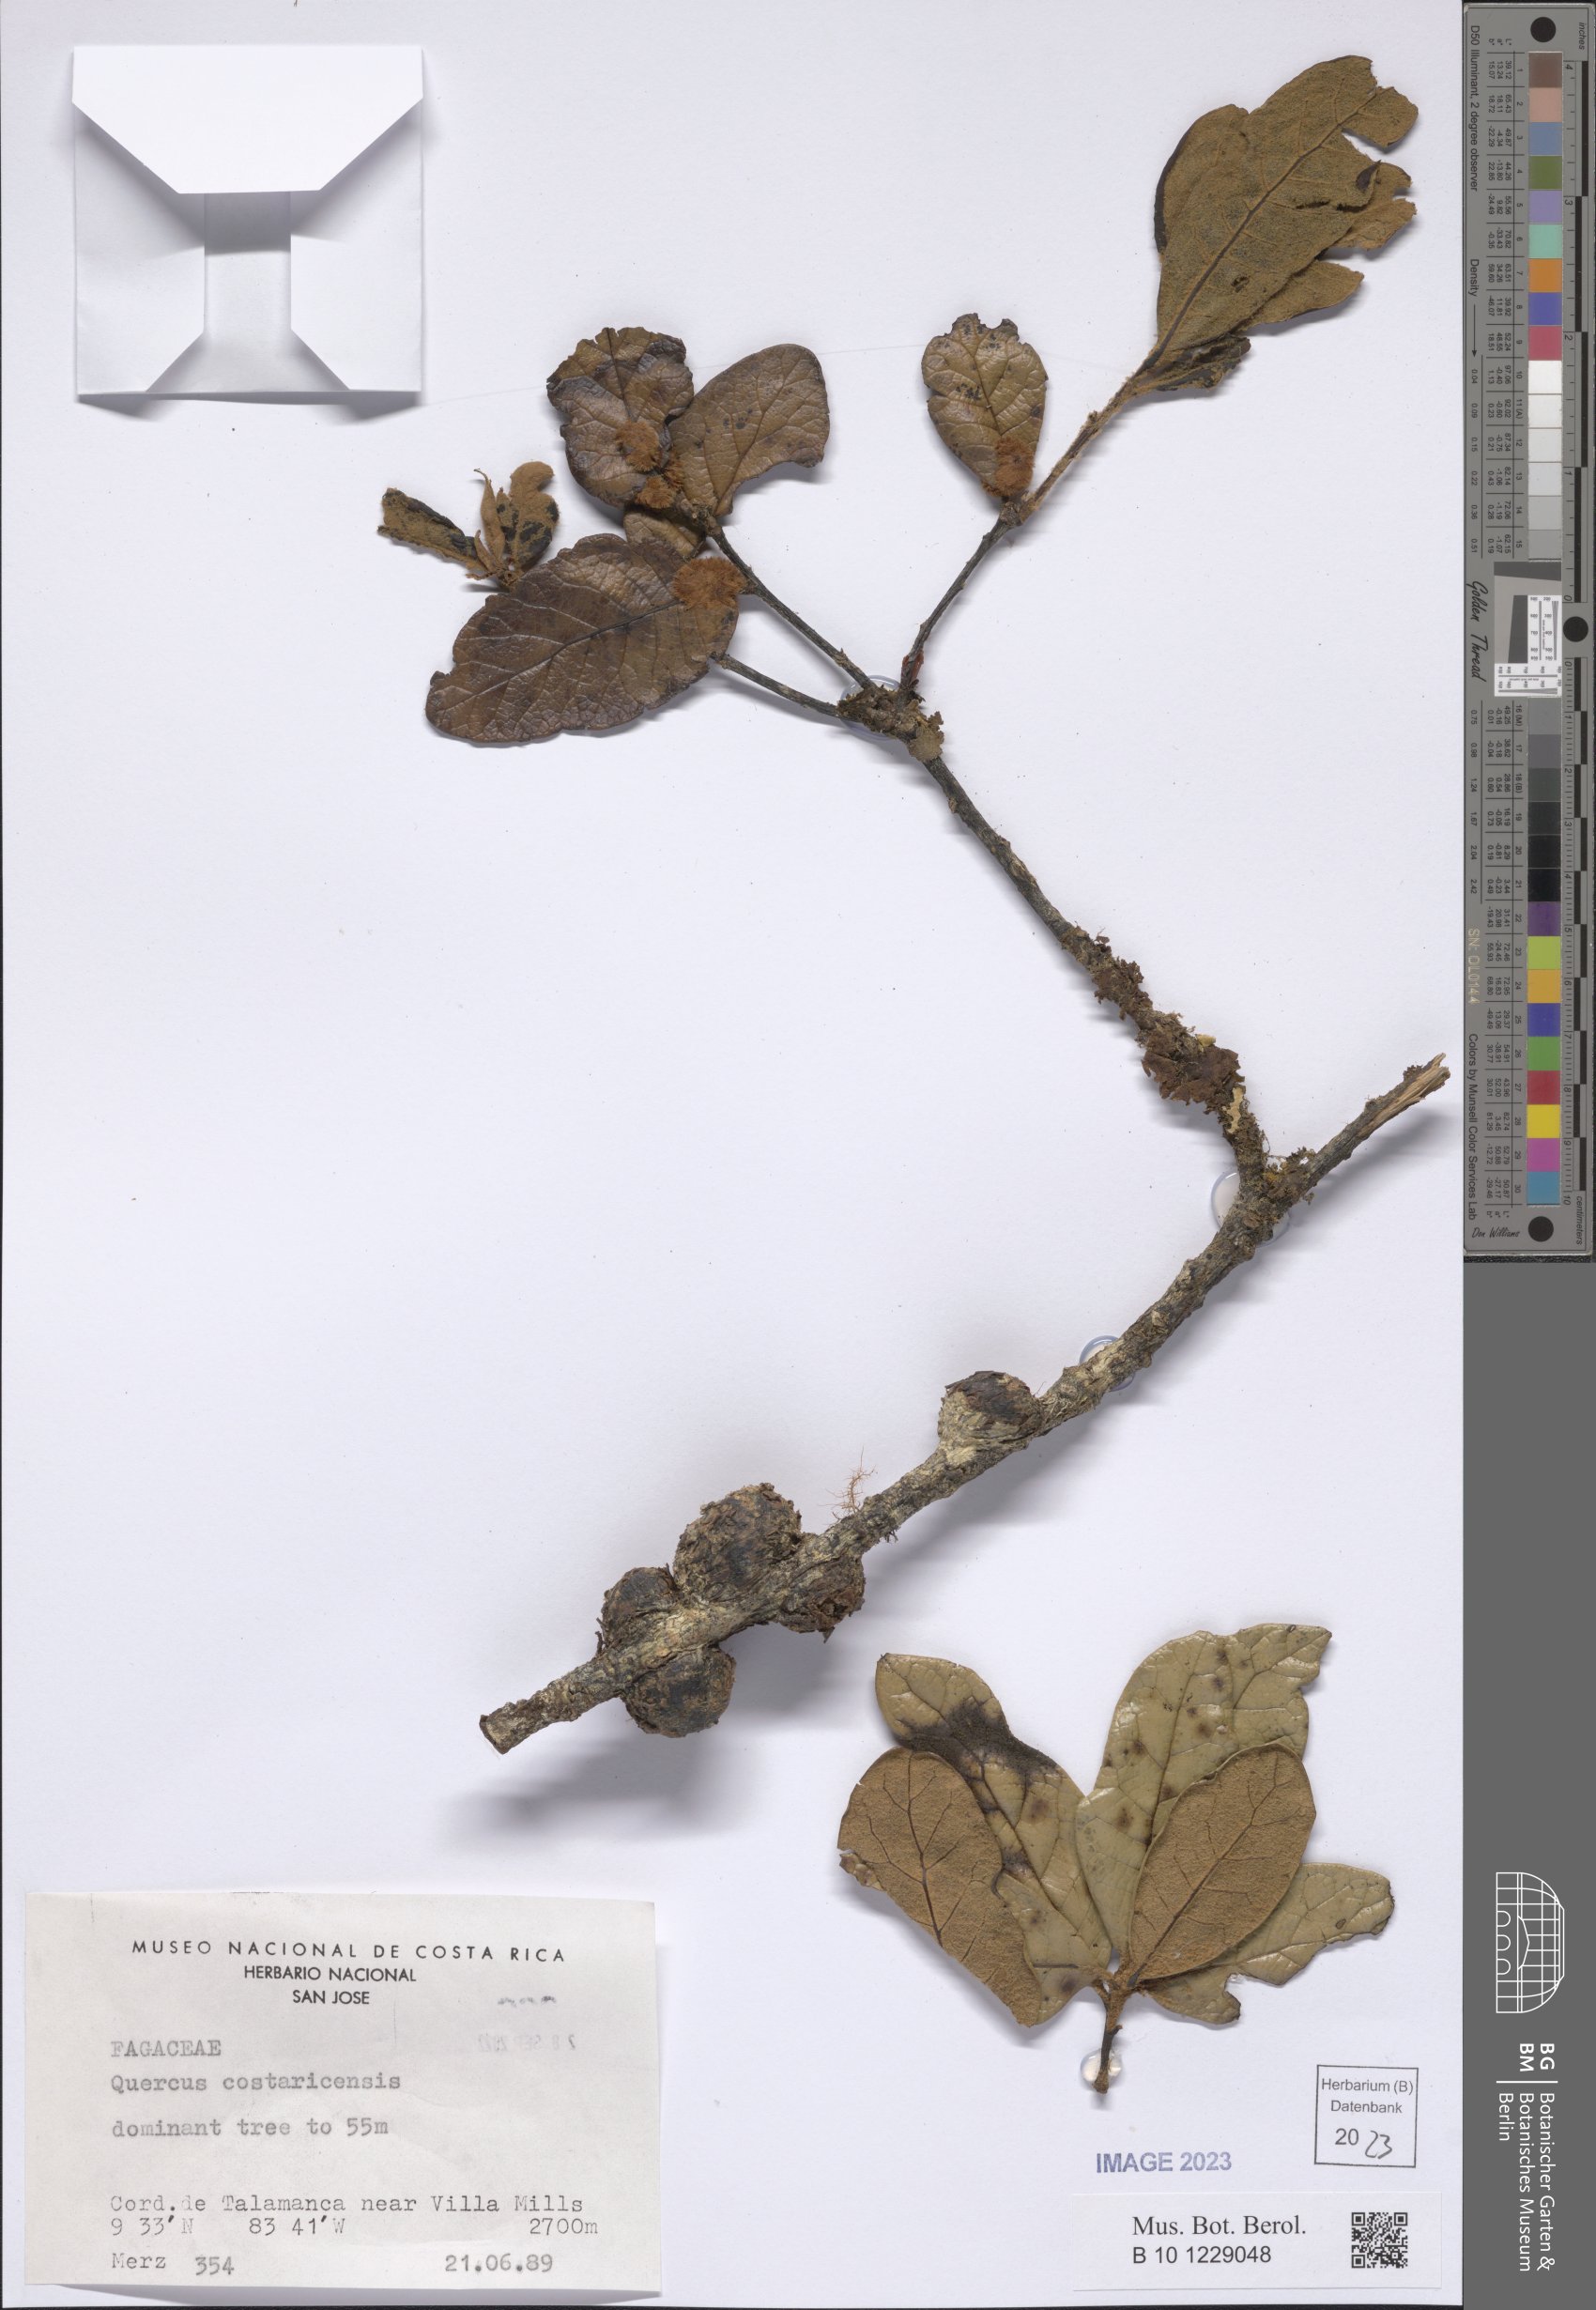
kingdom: Plantae
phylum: Tracheophyta
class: Magnoliopsida
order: Fagales
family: Fagaceae
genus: Quercus
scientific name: Quercus costaricensis
